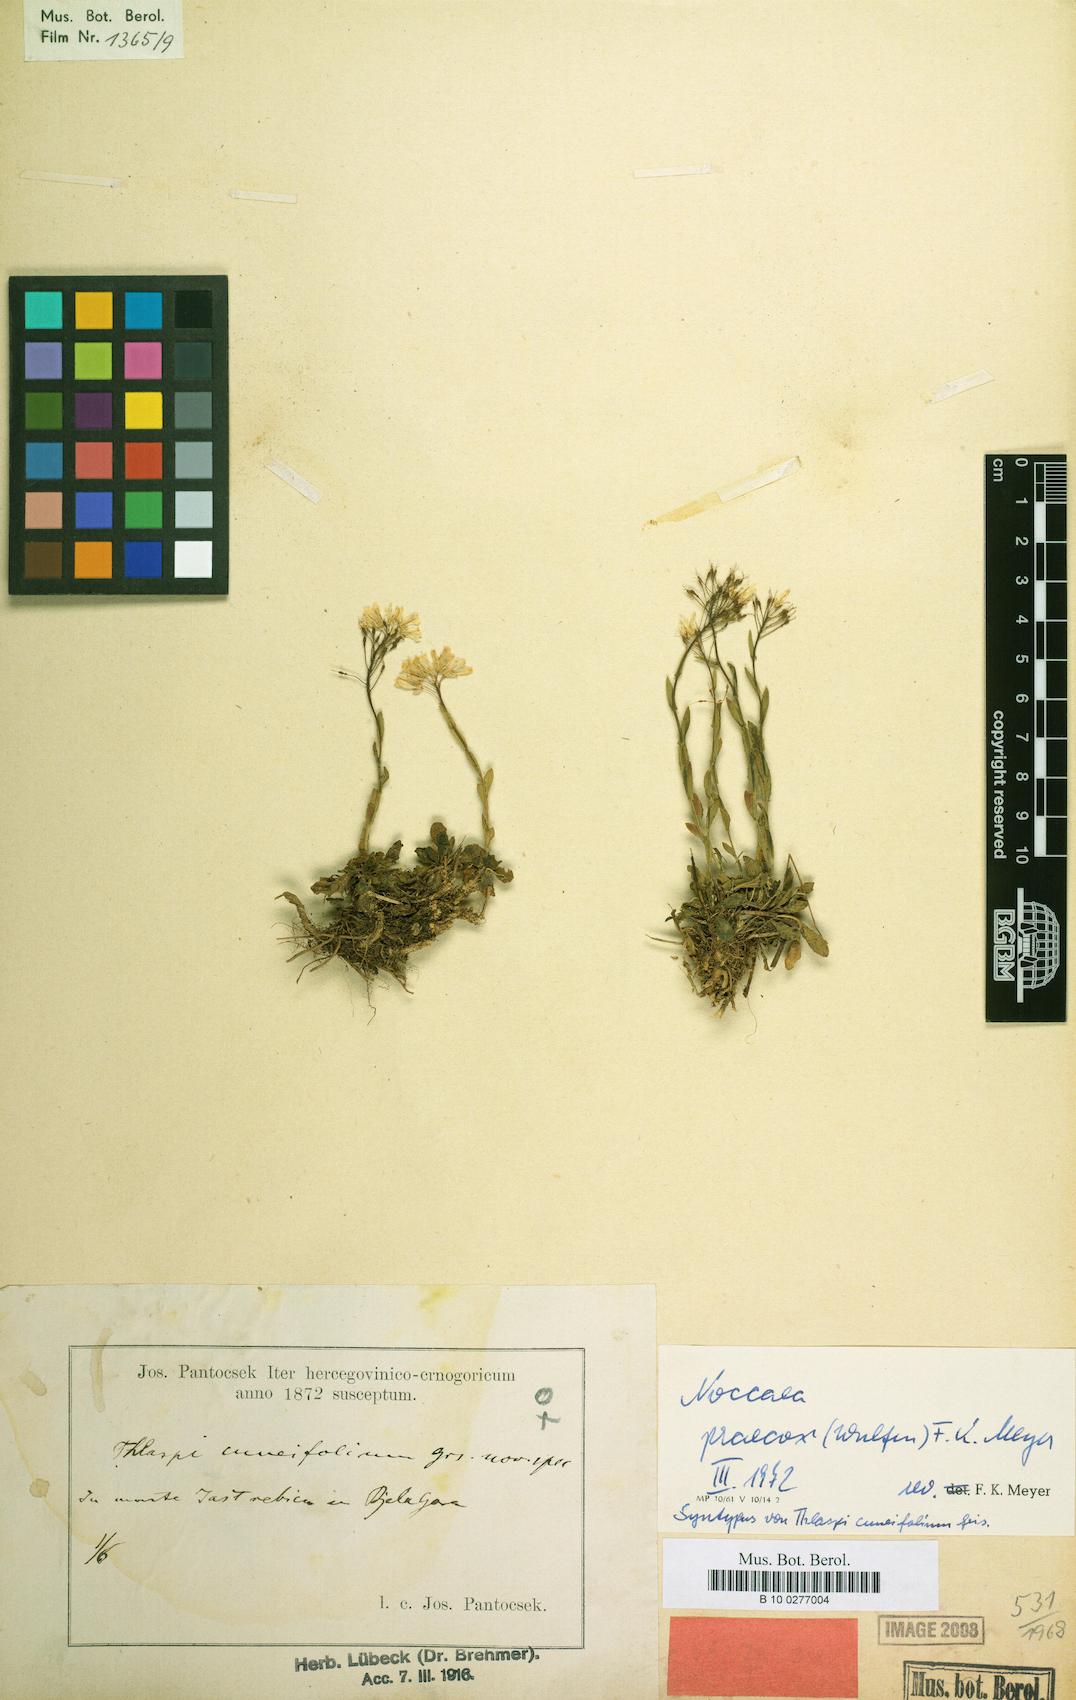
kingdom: Plantae
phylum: Tracheophyta
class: Magnoliopsida
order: Brassicales
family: Brassicaceae
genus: Noccaea
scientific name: Noccaea praecox
